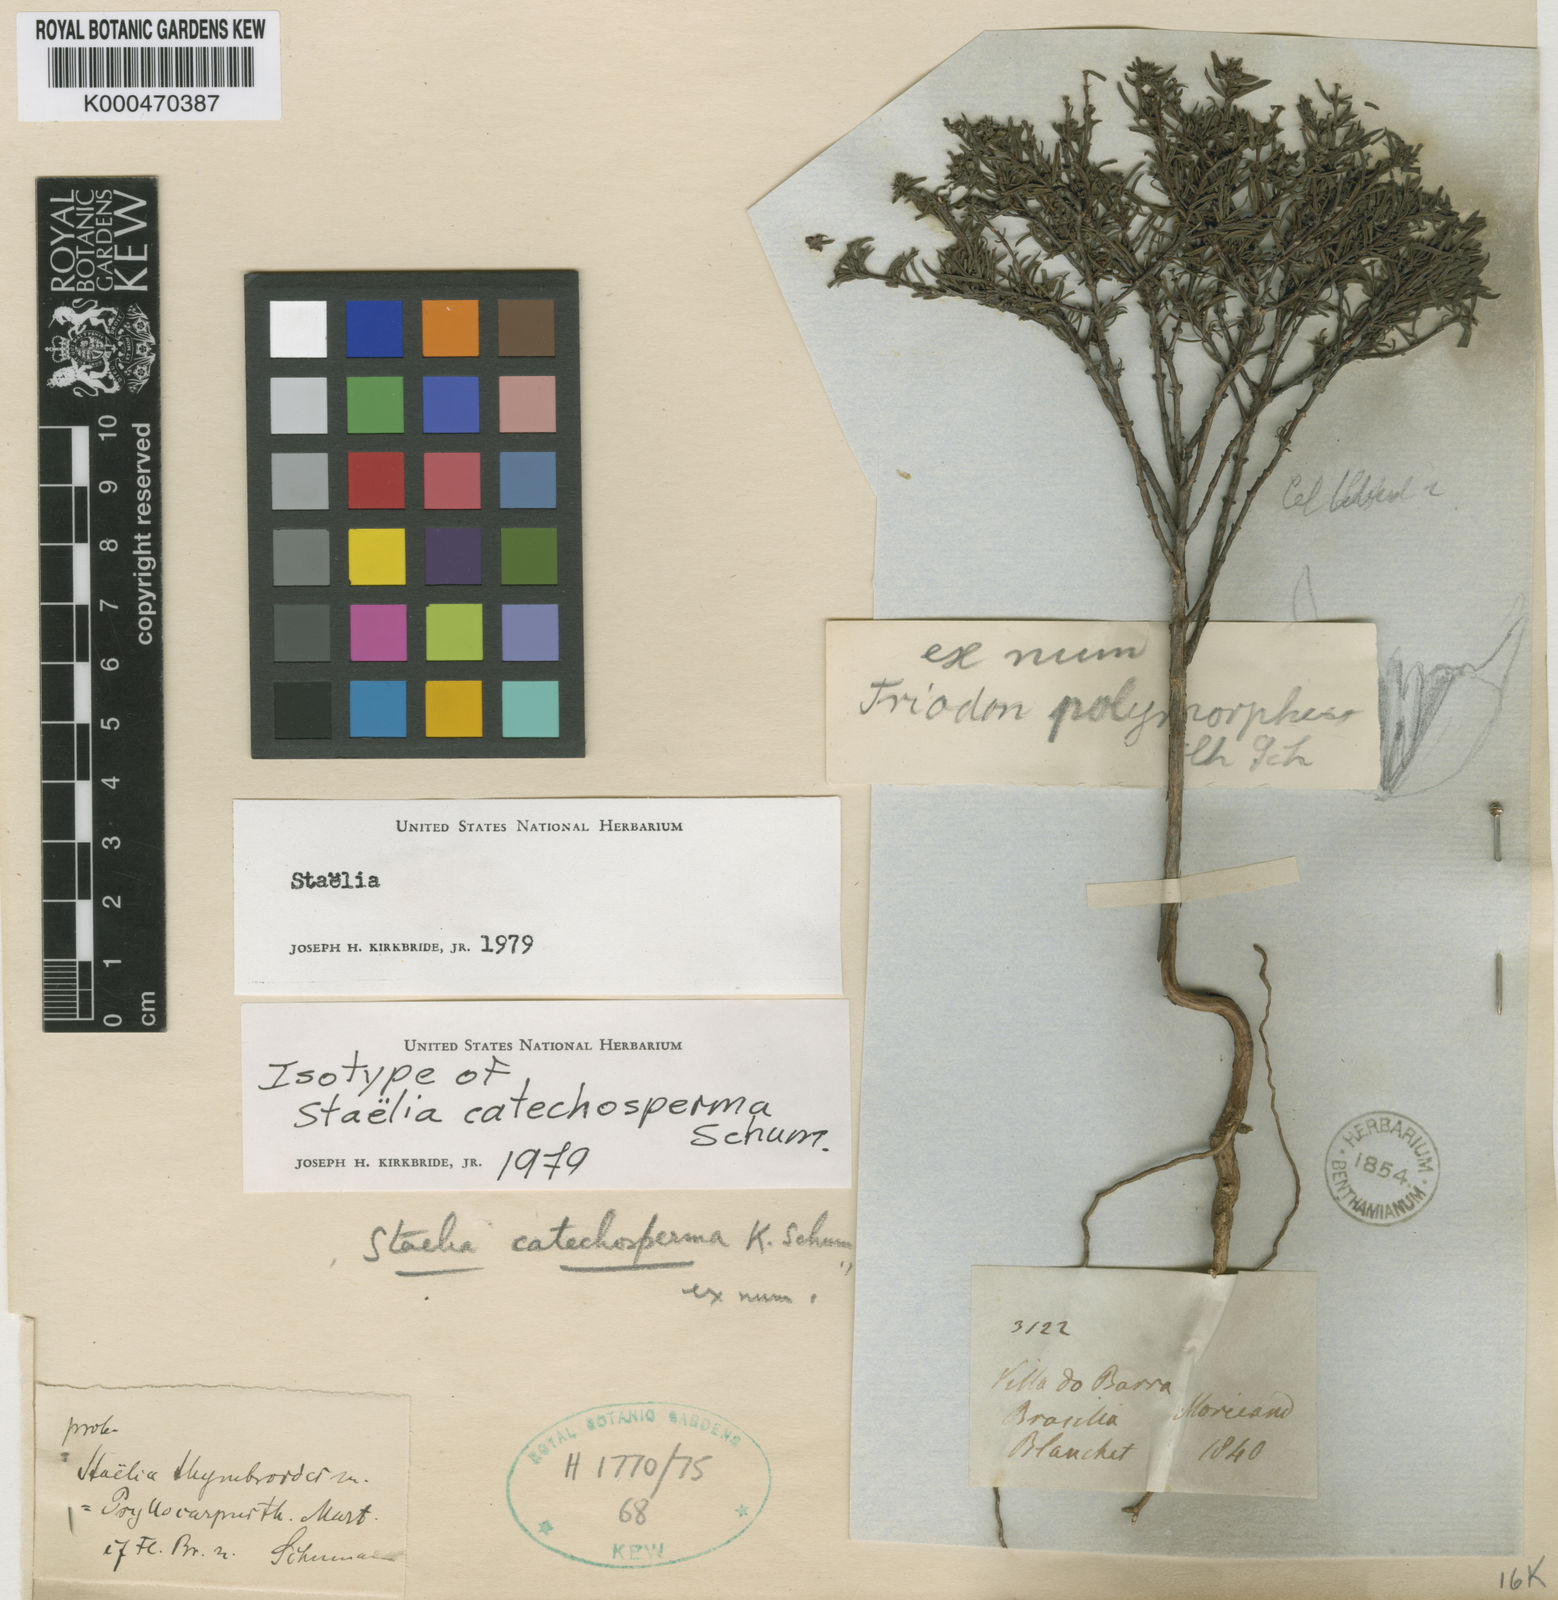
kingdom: Plantae
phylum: Tracheophyta
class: Magnoliopsida
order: Gentianales
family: Rubiaceae
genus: Anthospermopsis
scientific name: Anthospermopsis catechosperma
